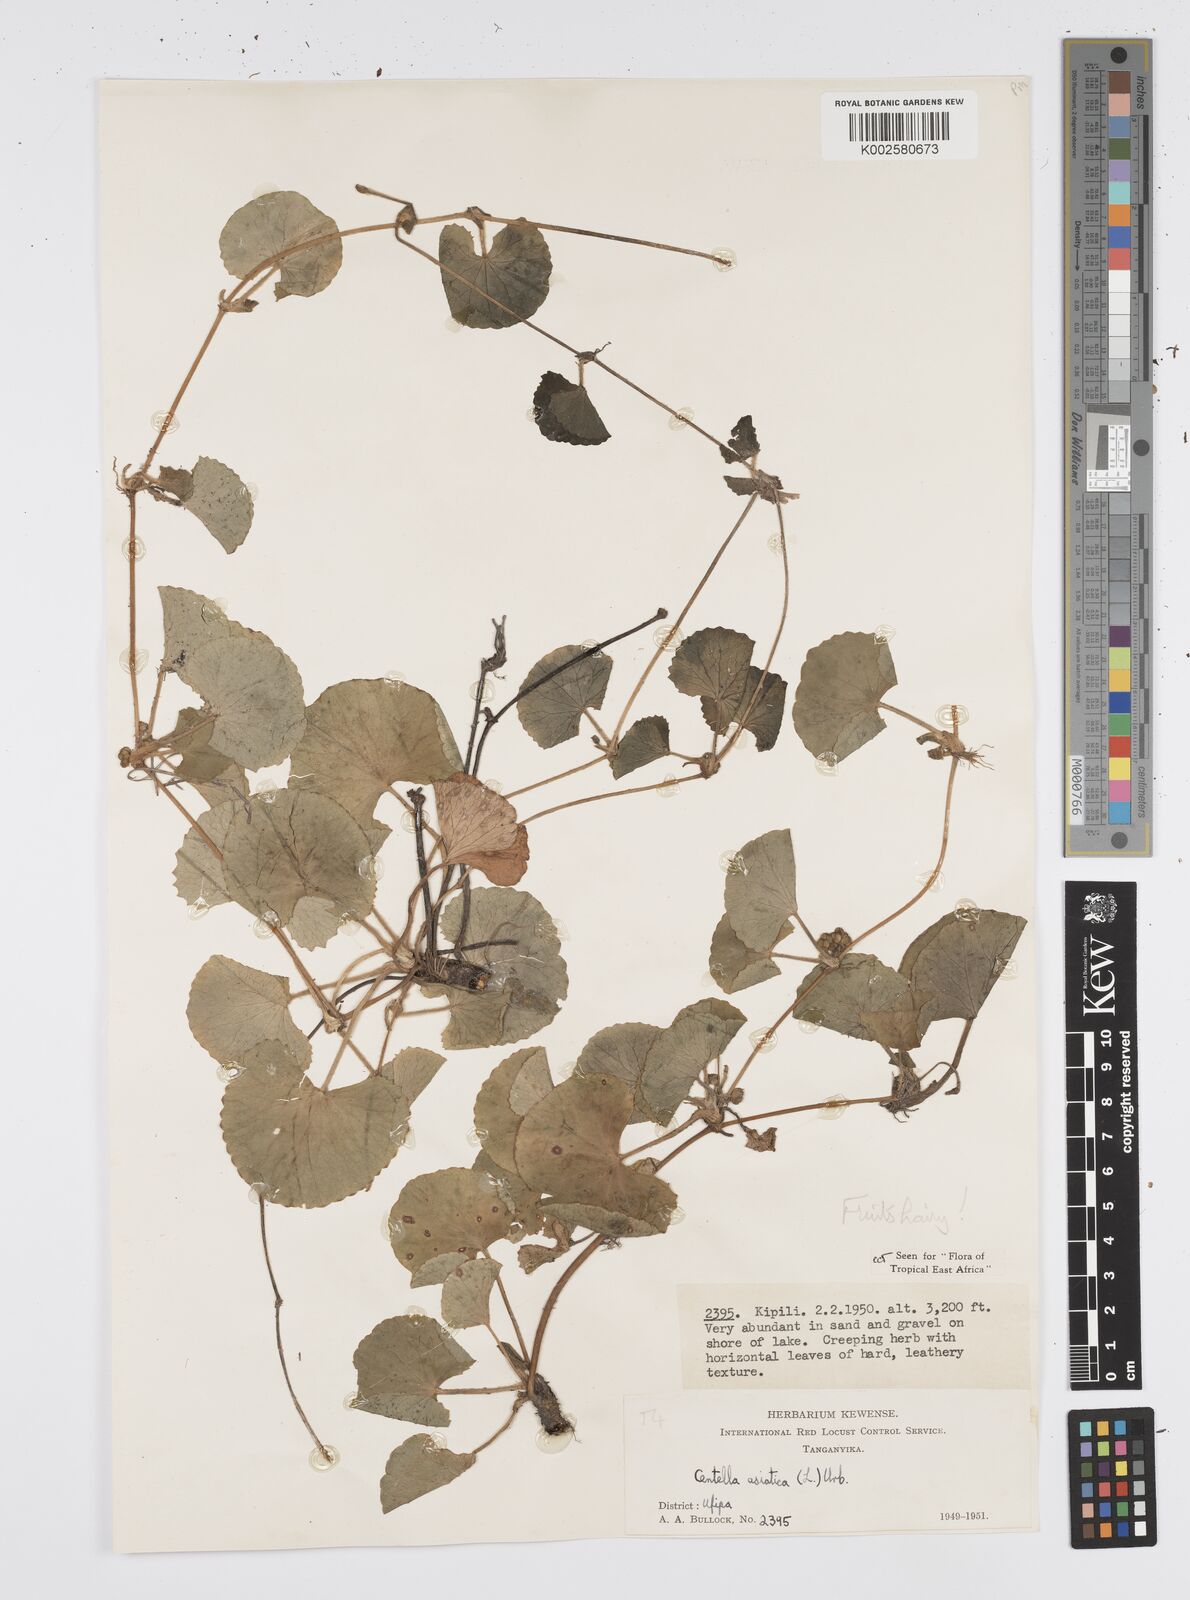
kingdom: Plantae
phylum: Tracheophyta
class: Magnoliopsida
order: Apiales
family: Apiaceae
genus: Centella
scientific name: Centella asiatica
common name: Spadeleaf
